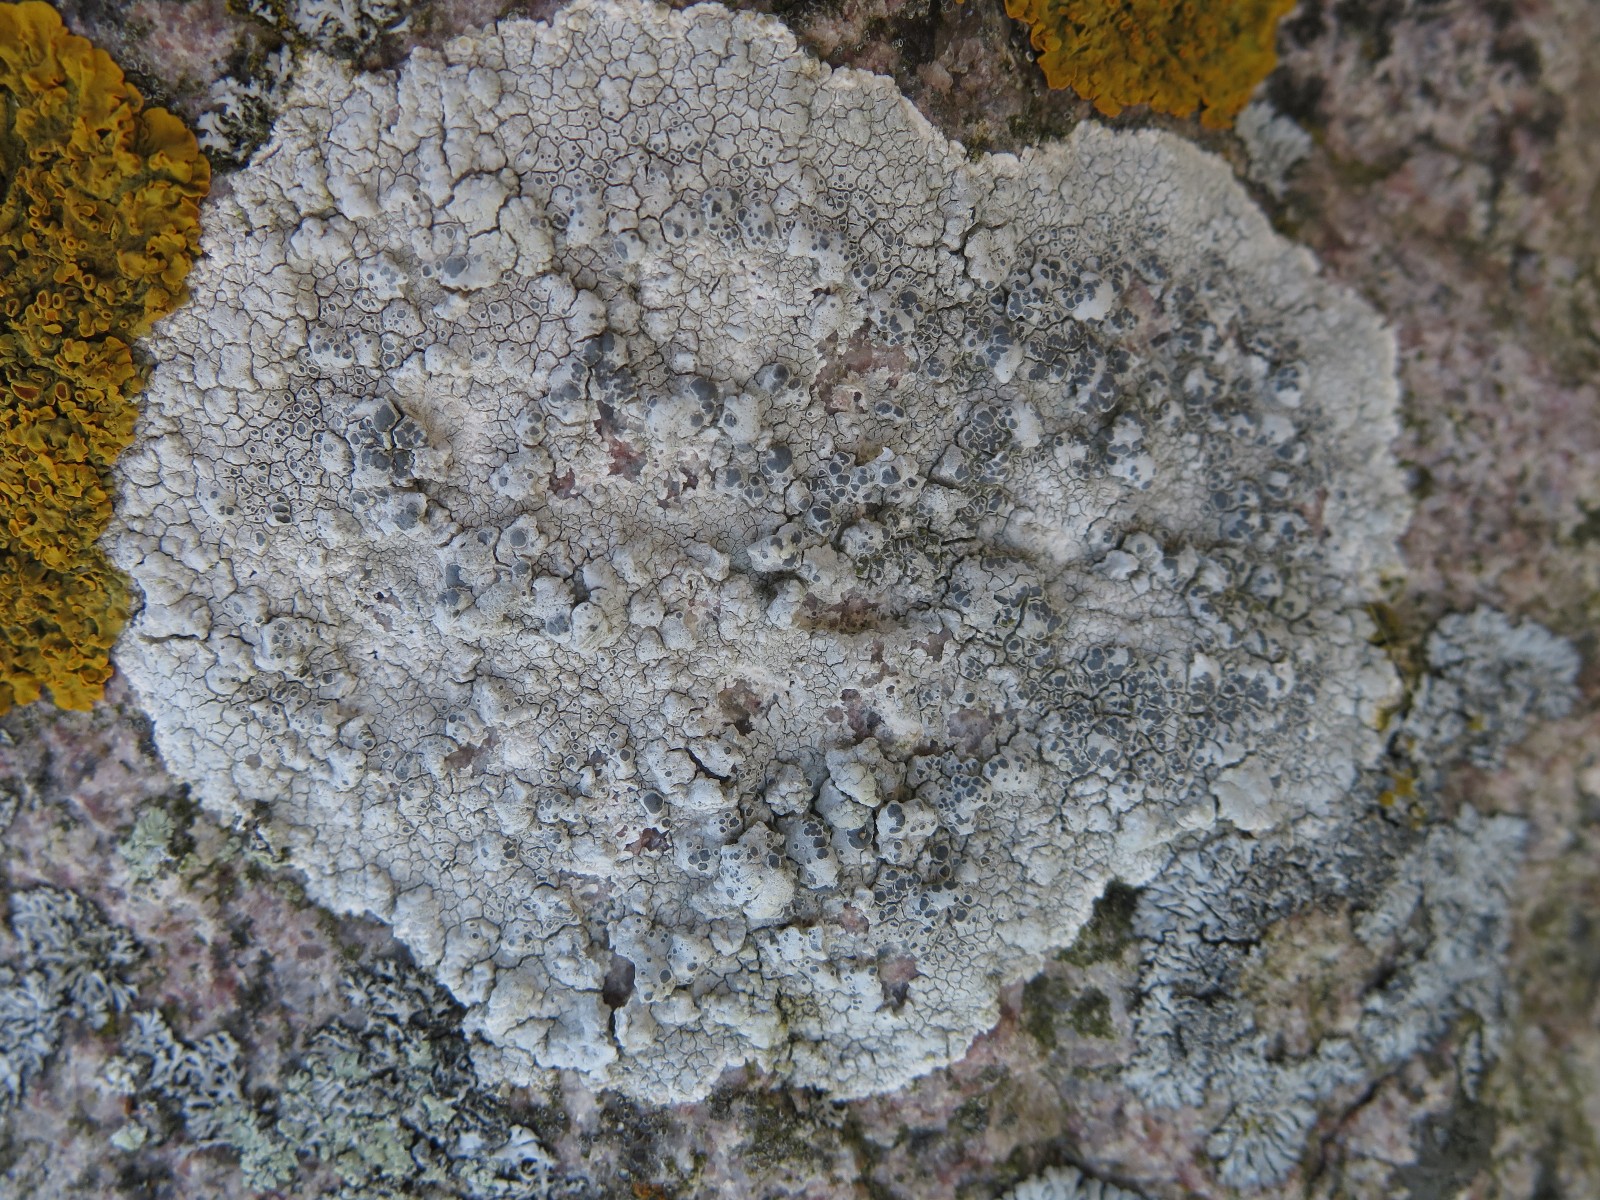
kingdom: Fungi
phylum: Ascomycota
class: Lecanoromycetes
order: Pertusariales
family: Megasporaceae
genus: Aspicilia
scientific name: Aspicilia cinerea
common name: grå hulskivelav
